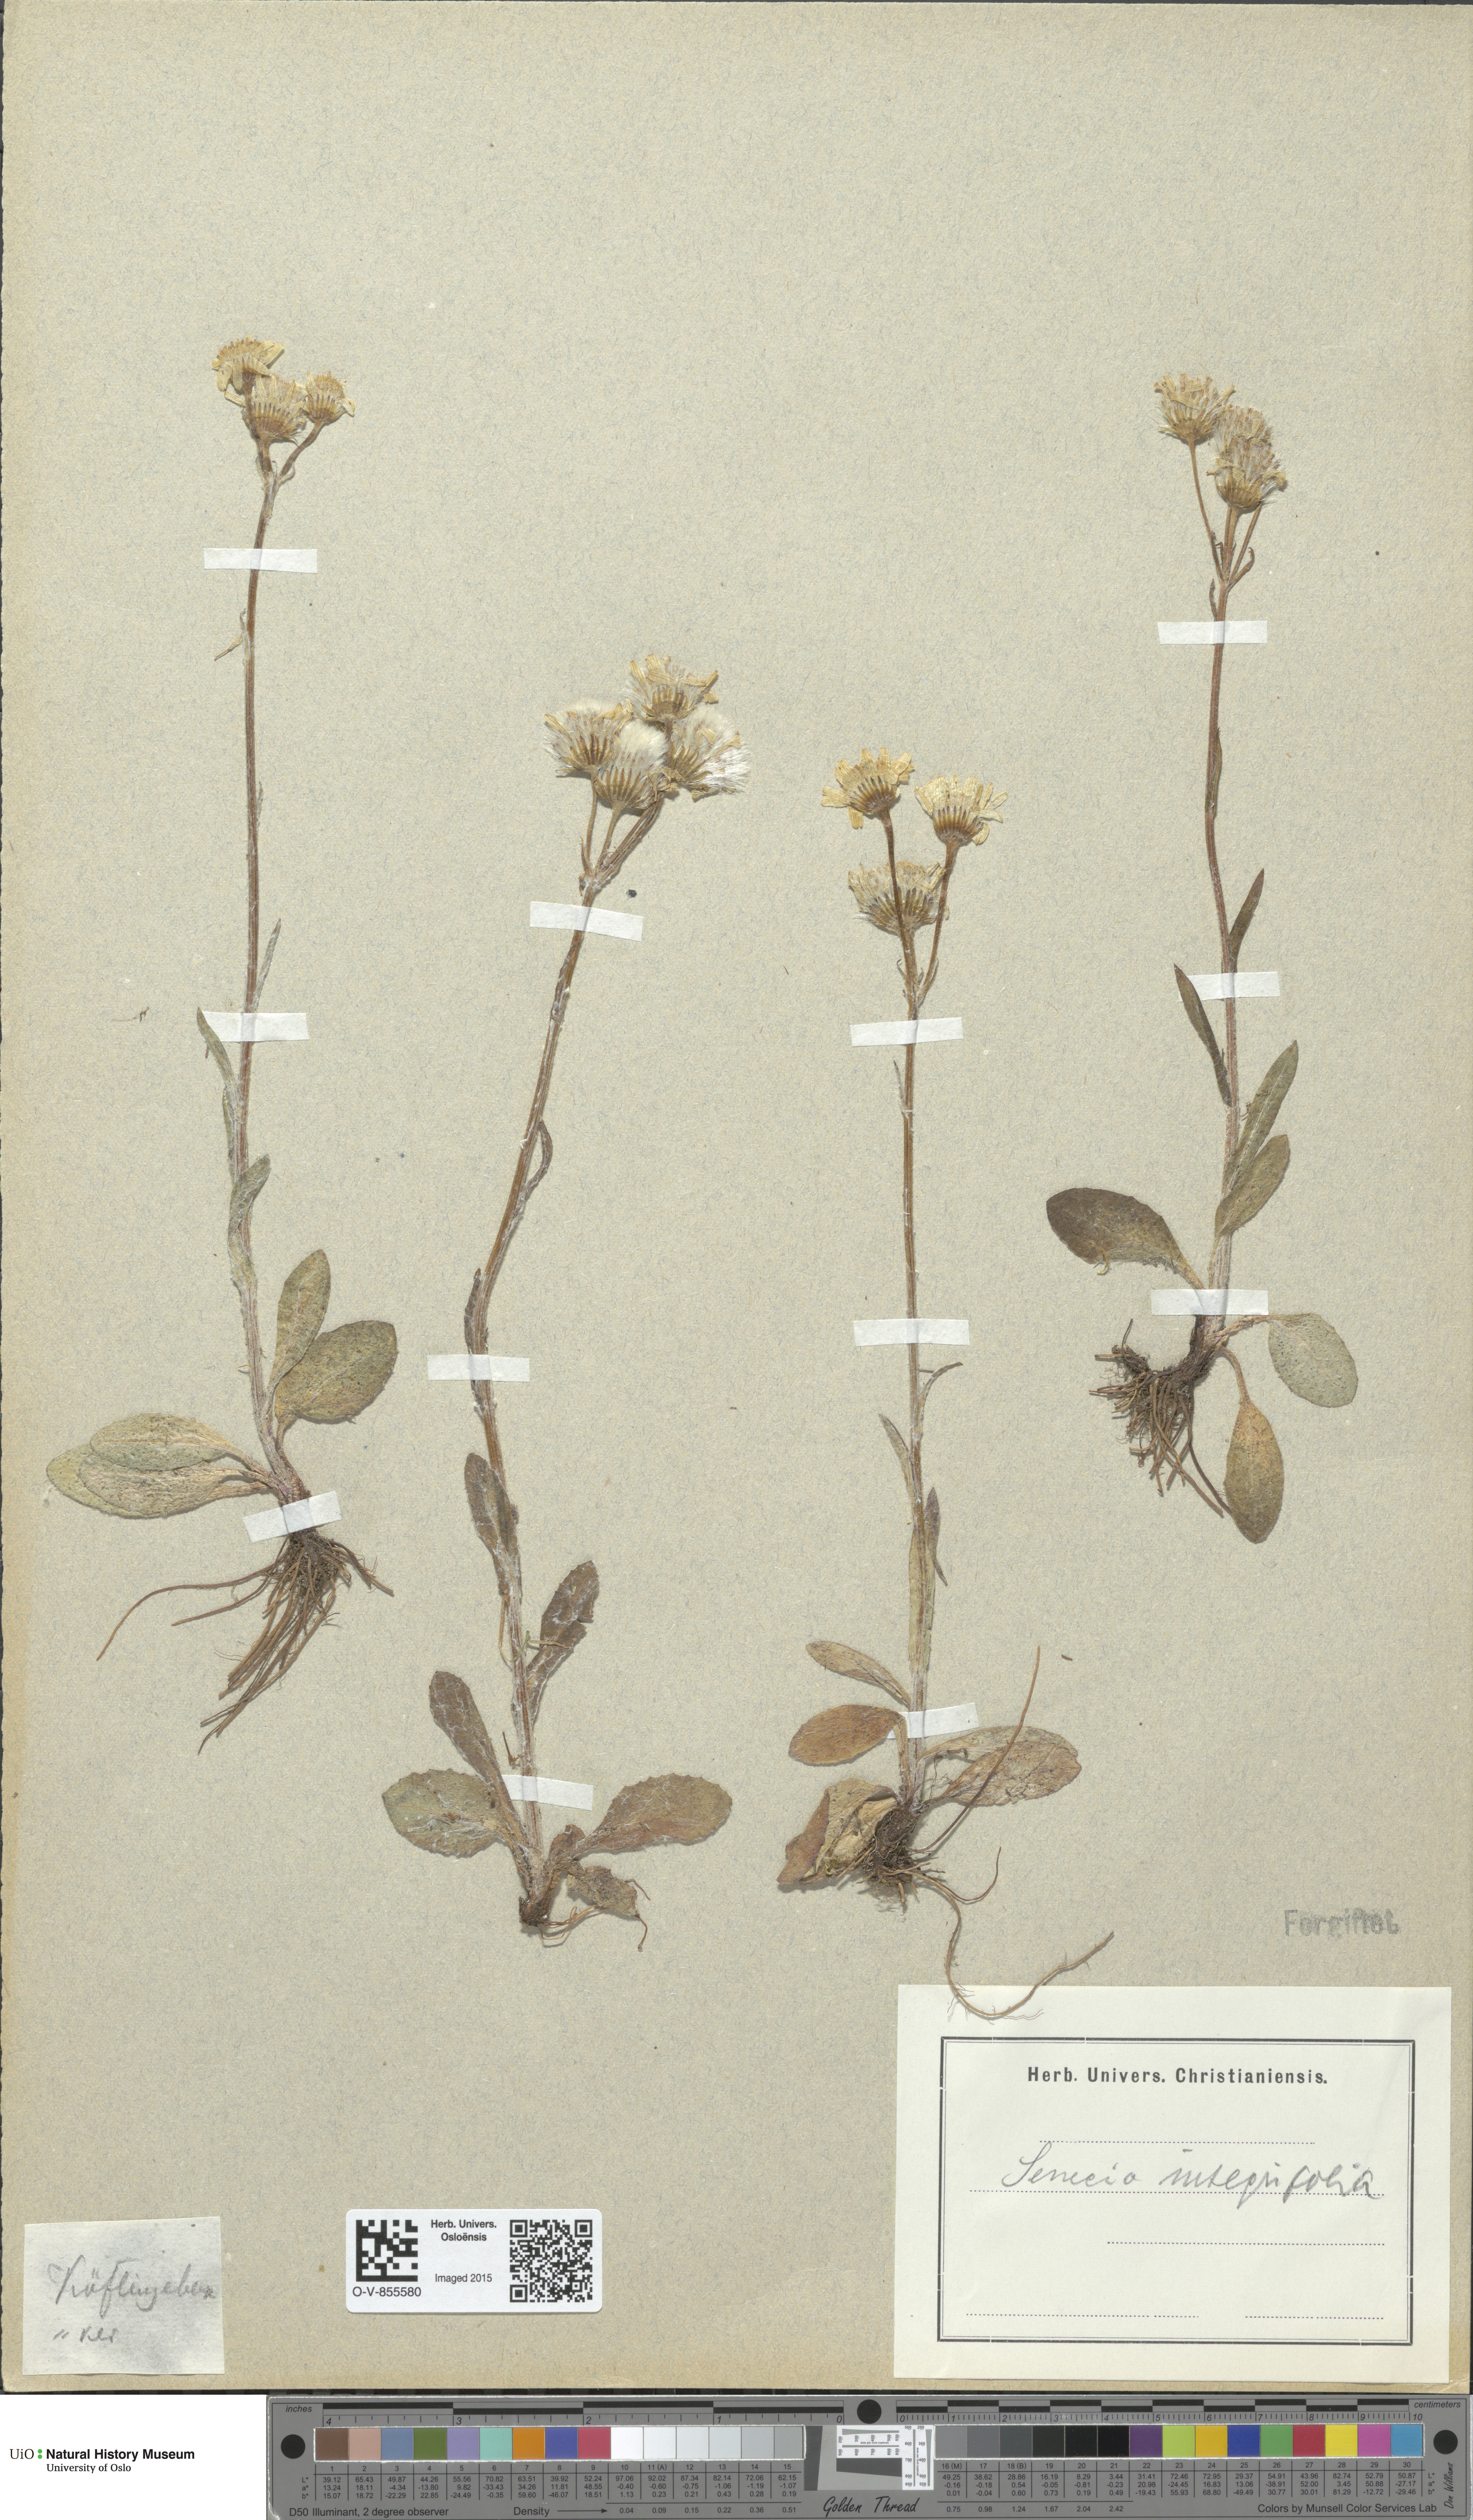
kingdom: Plantae
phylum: Tracheophyta
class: Magnoliopsida
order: Asterales
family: Asteraceae
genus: Tephroseris
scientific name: Tephroseris integrifolia
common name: Field fleawort
